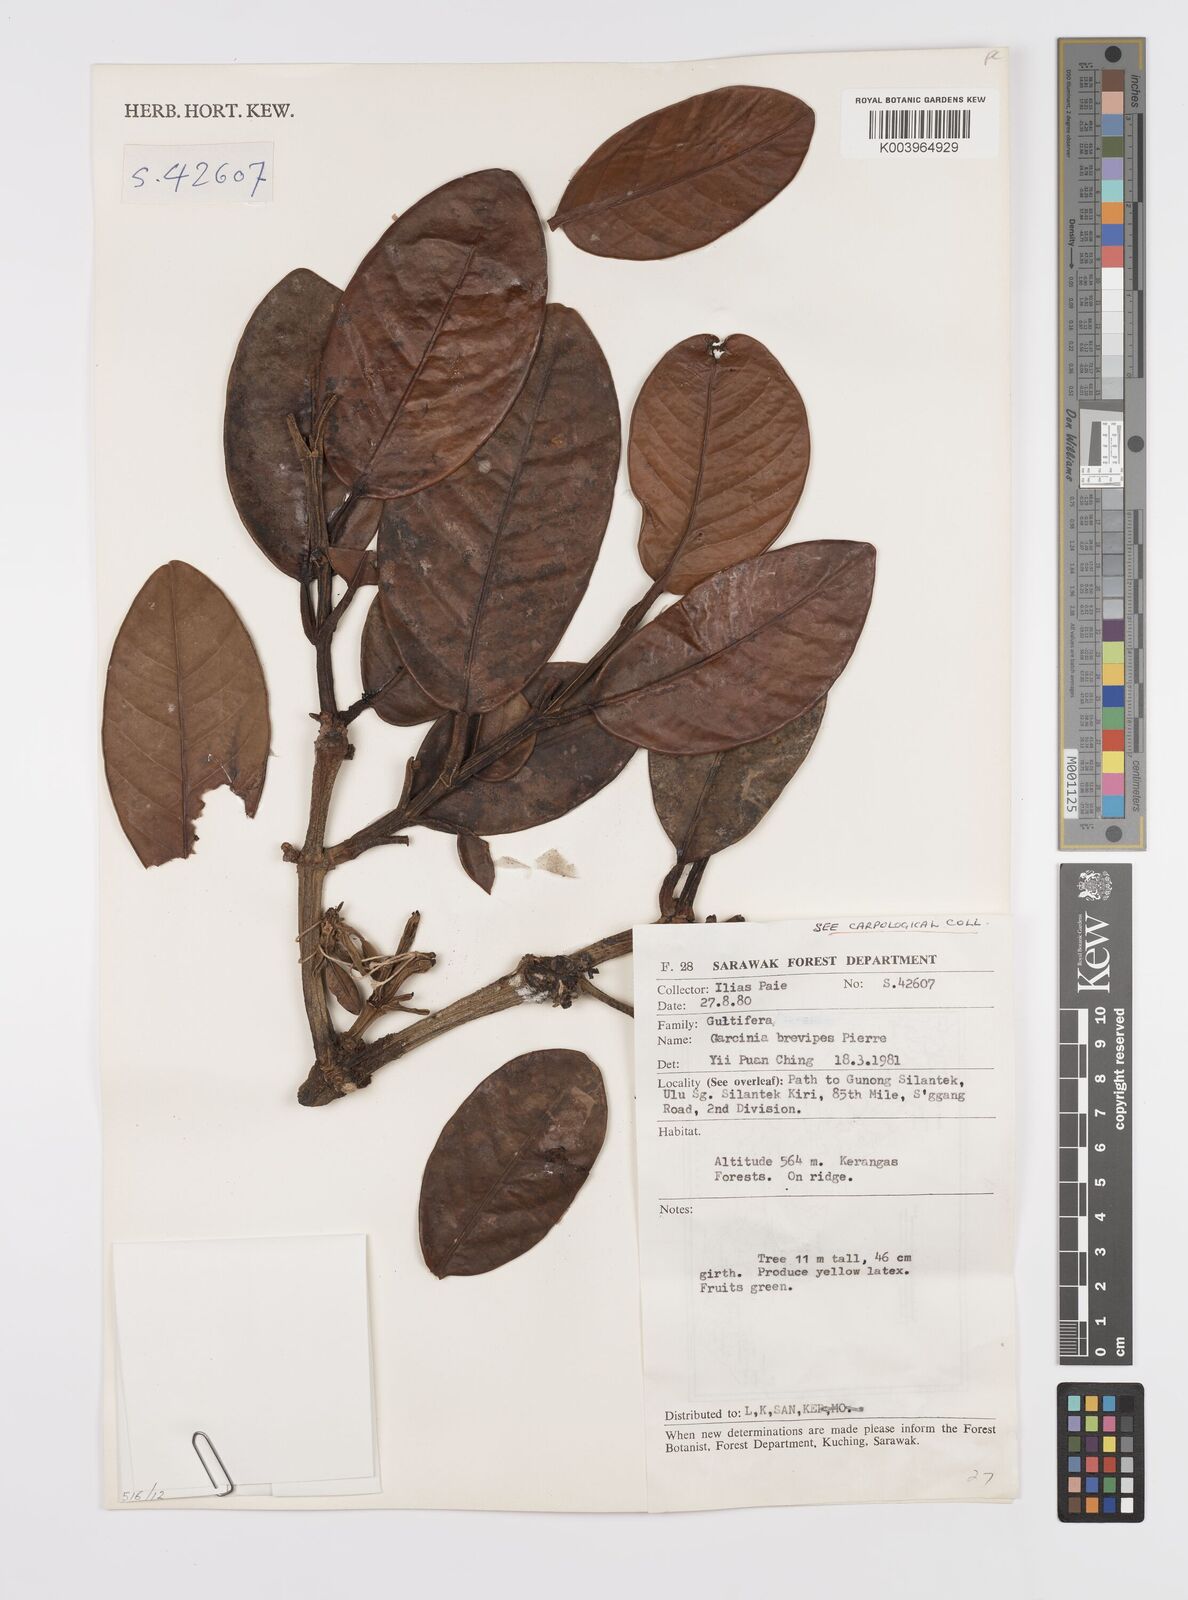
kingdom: Plantae
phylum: Tracheophyta
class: Magnoliopsida
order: Malpighiales
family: Clusiaceae
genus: Garcinia
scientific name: Garcinia brevipes
